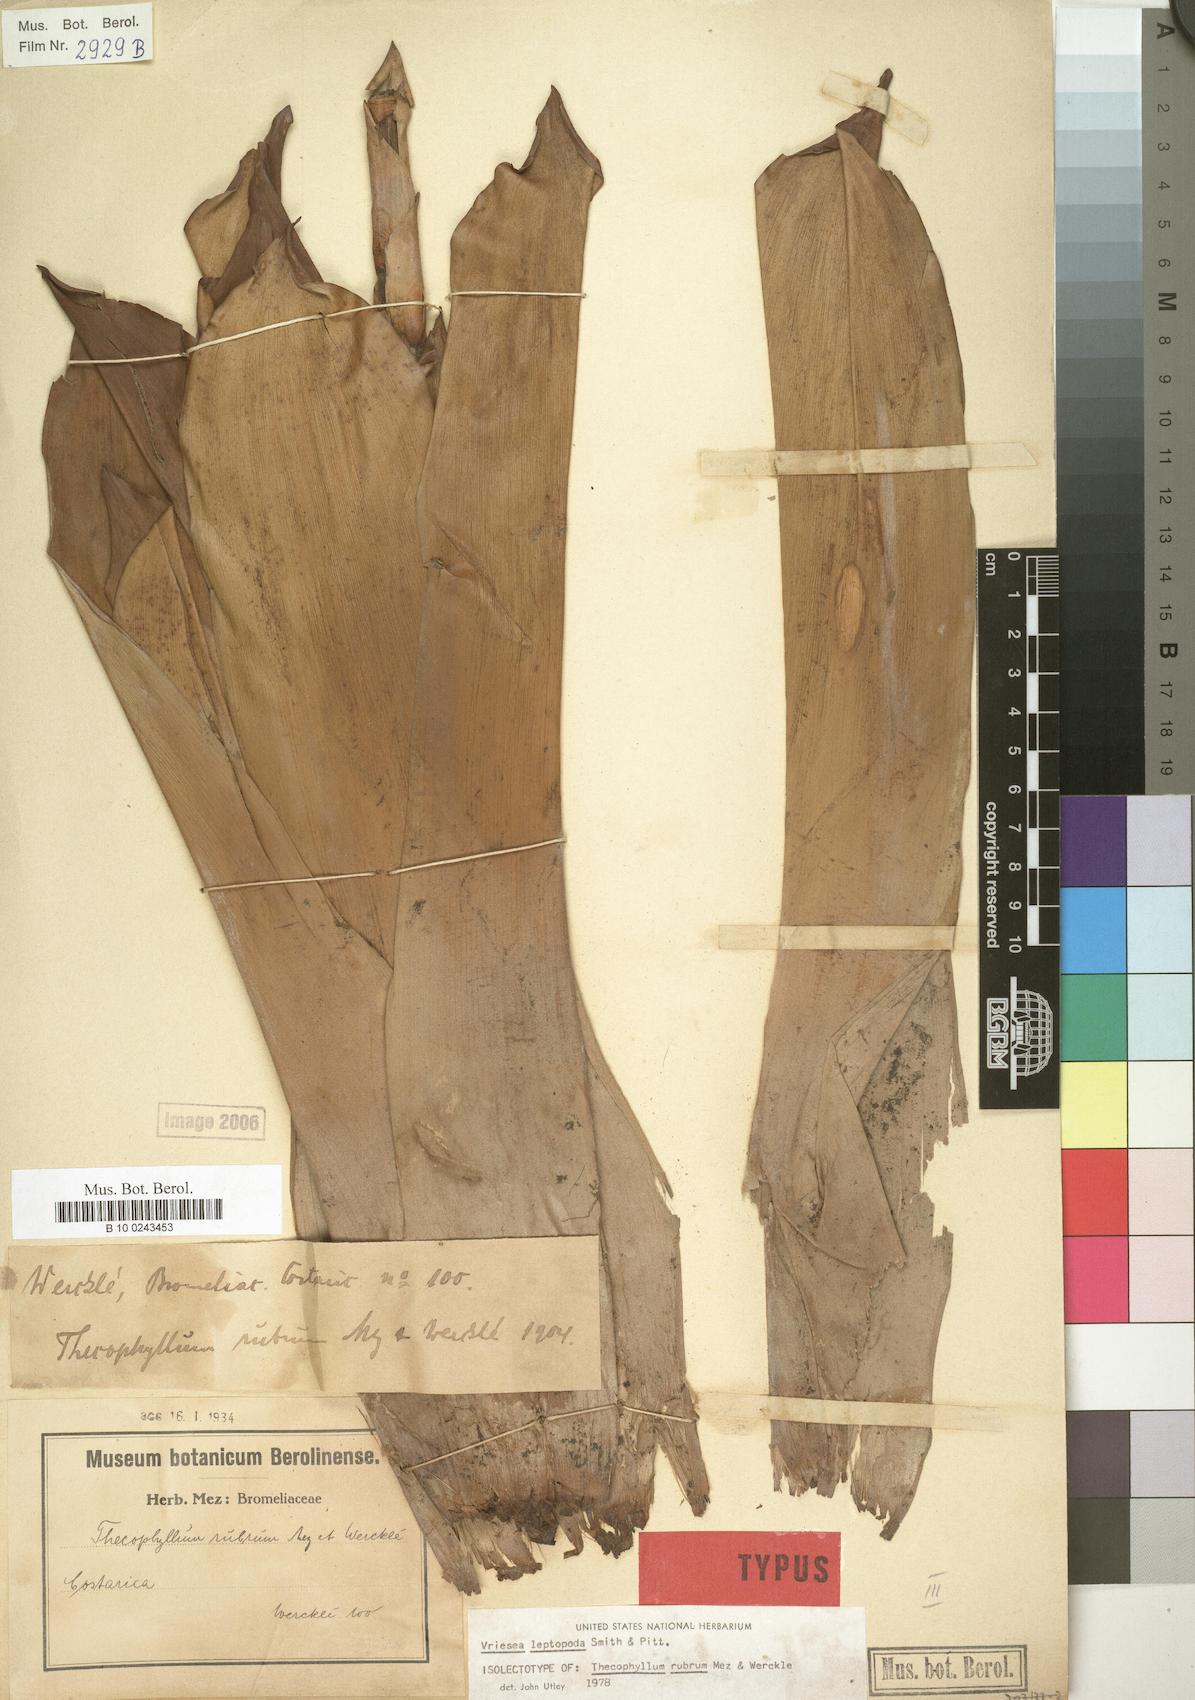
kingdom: Plantae
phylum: Tracheophyta
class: Liliopsida
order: Poales
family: Bromeliaceae
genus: Werauhia
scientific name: Werauhia rubra
